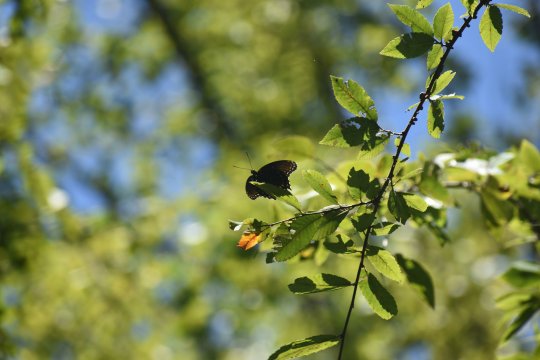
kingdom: Animalia
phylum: Arthropoda
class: Insecta
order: Lepidoptera
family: Nymphalidae
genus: Limenitis
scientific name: Limenitis arthemis
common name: Red-spotted Admiral
